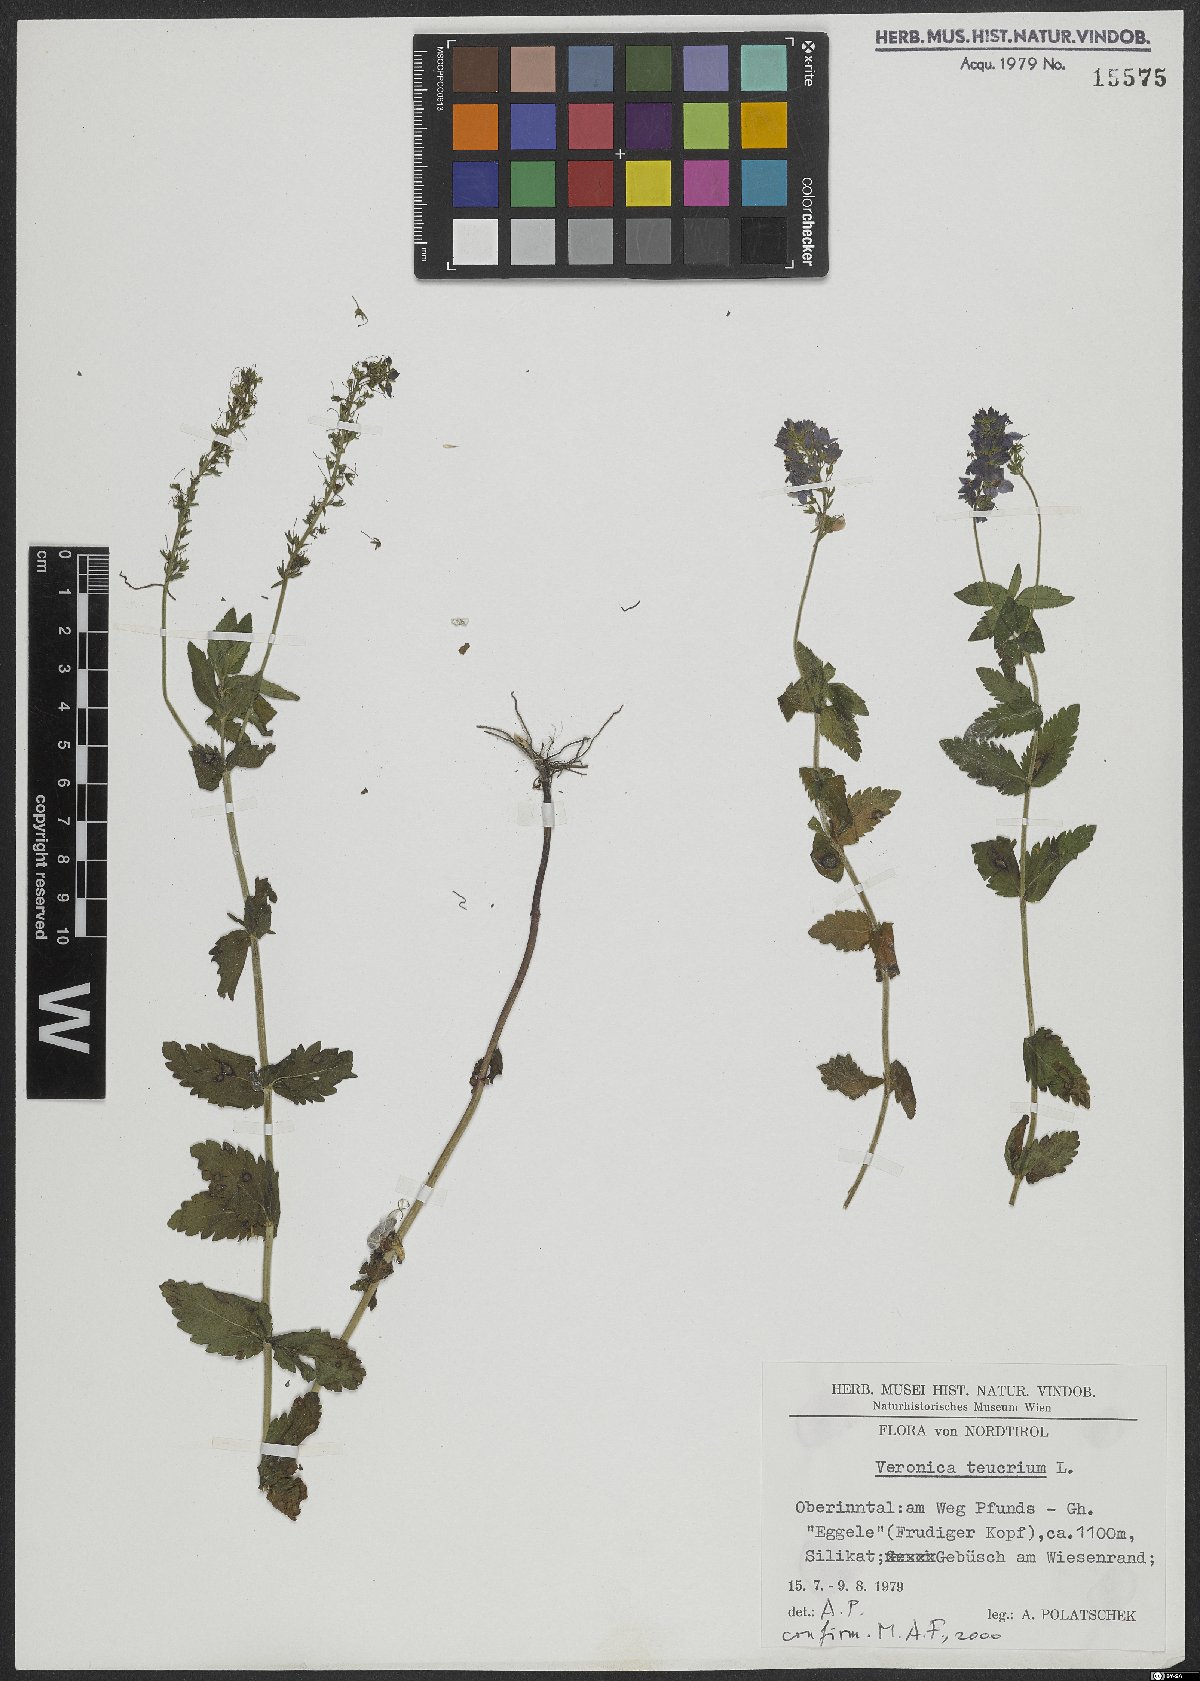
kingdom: Plantae
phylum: Tracheophyta
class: Magnoliopsida
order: Lamiales
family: Plantaginaceae
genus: Veronica
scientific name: Veronica teucrium
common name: Large speedwell
